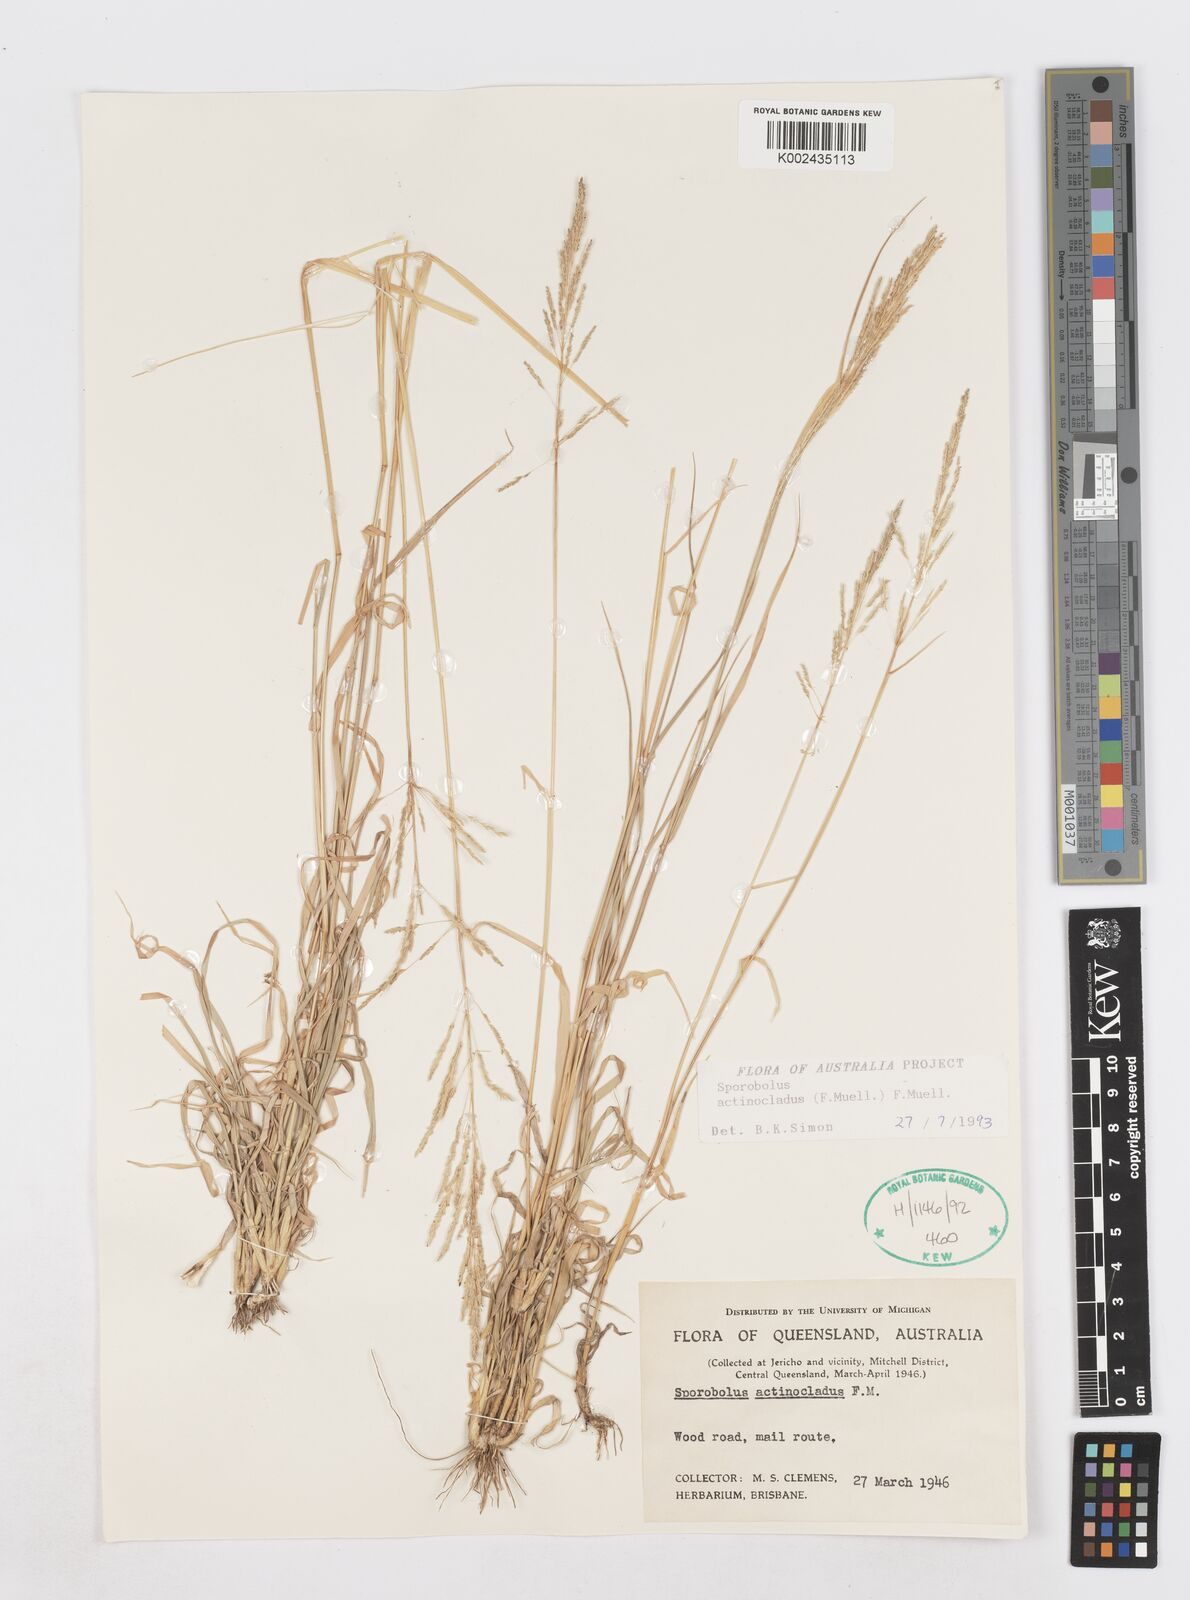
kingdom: Plantae
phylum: Tracheophyta
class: Liliopsida
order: Poales
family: Poaceae
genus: Sporobolus
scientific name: Sporobolus actinocladus
